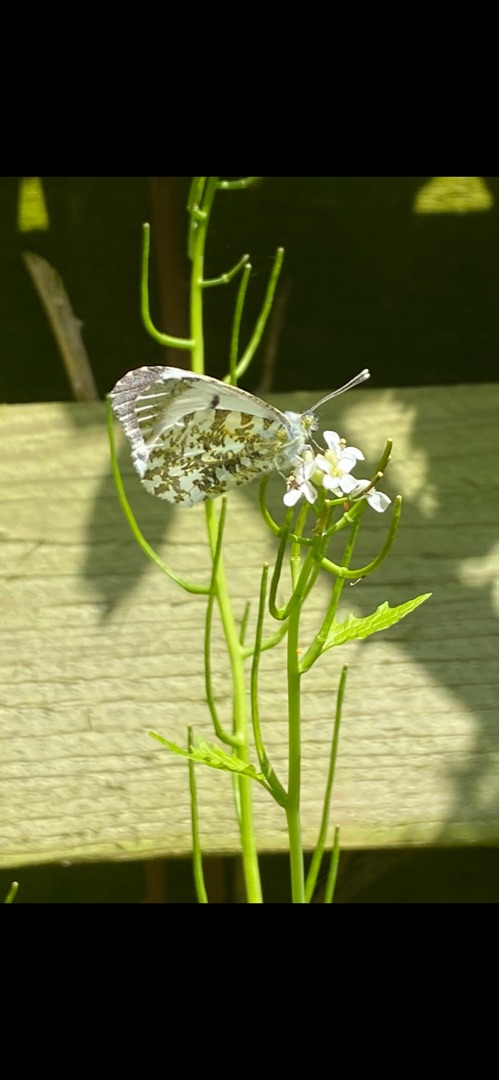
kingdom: Animalia
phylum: Arthropoda
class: Insecta
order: Lepidoptera
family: Pieridae
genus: Anthocharis
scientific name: Anthocharis cardamines
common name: Aurora
